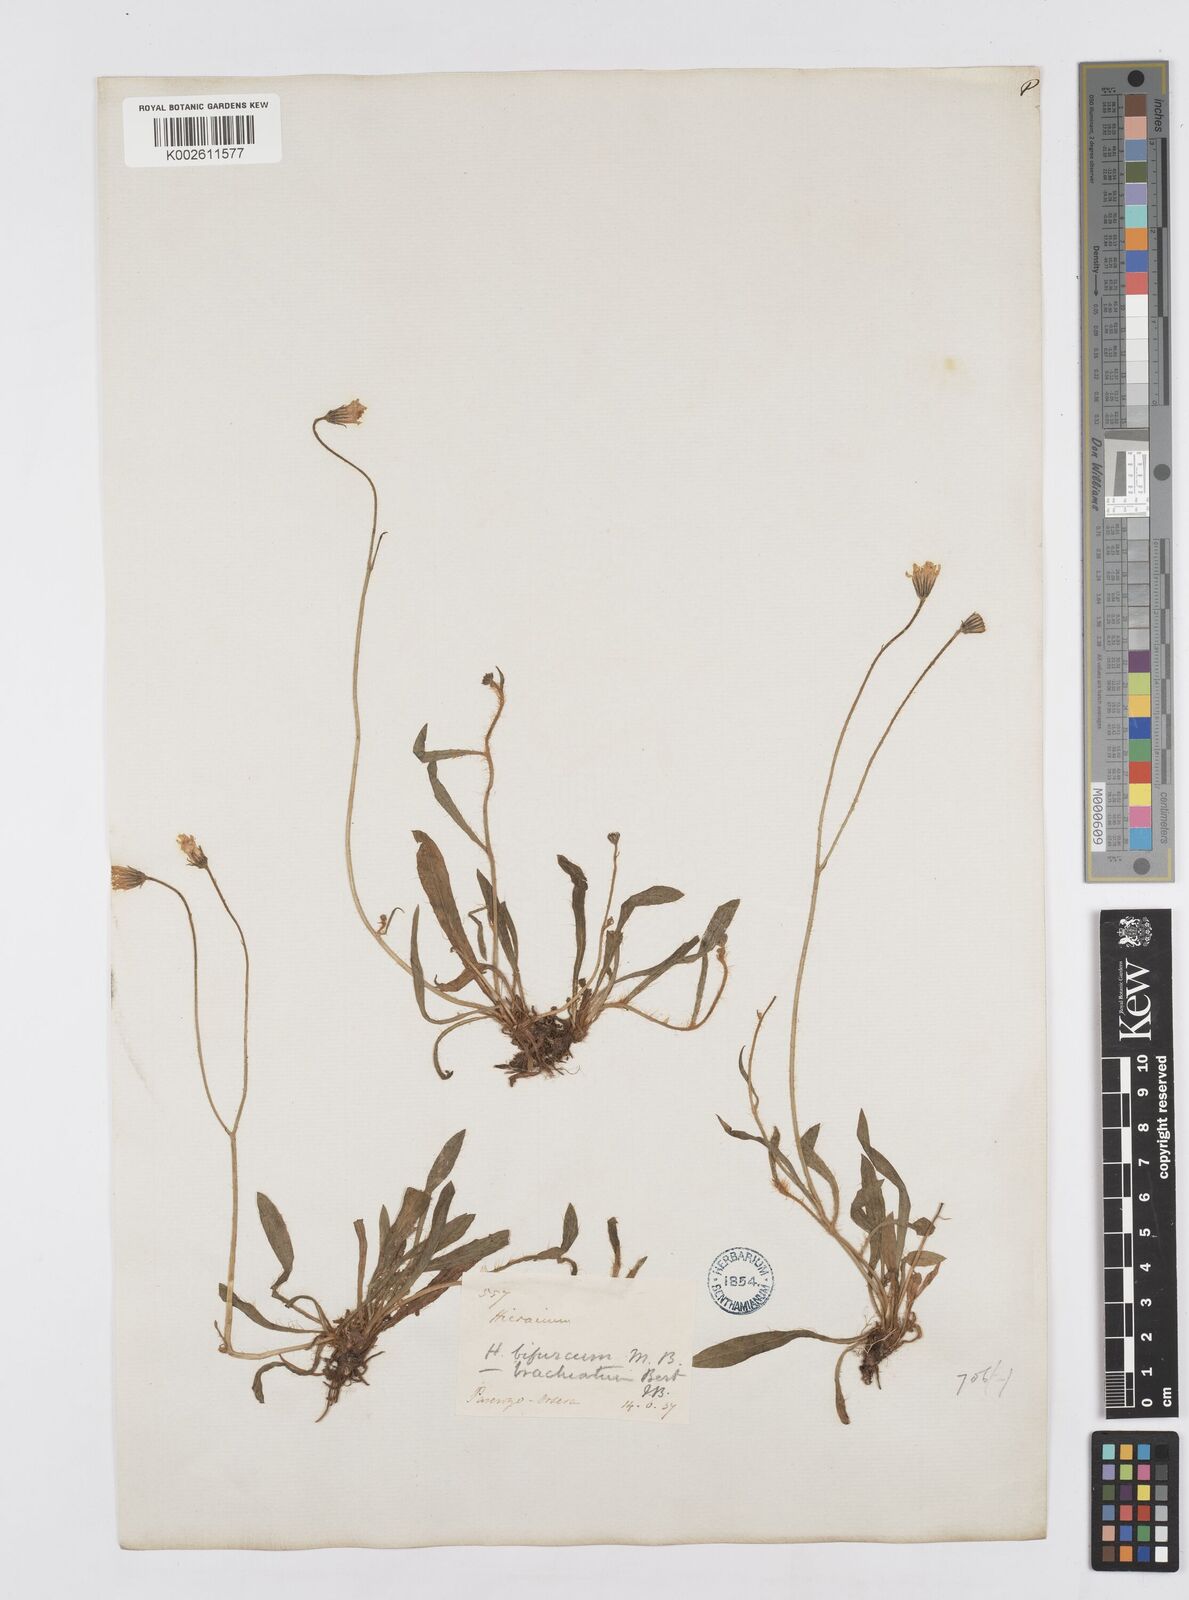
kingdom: Plantae
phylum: Tracheophyta
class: Magnoliopsida
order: Asterales
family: Asteraceae
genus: Pilosella
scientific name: Pilosella acutifolia
